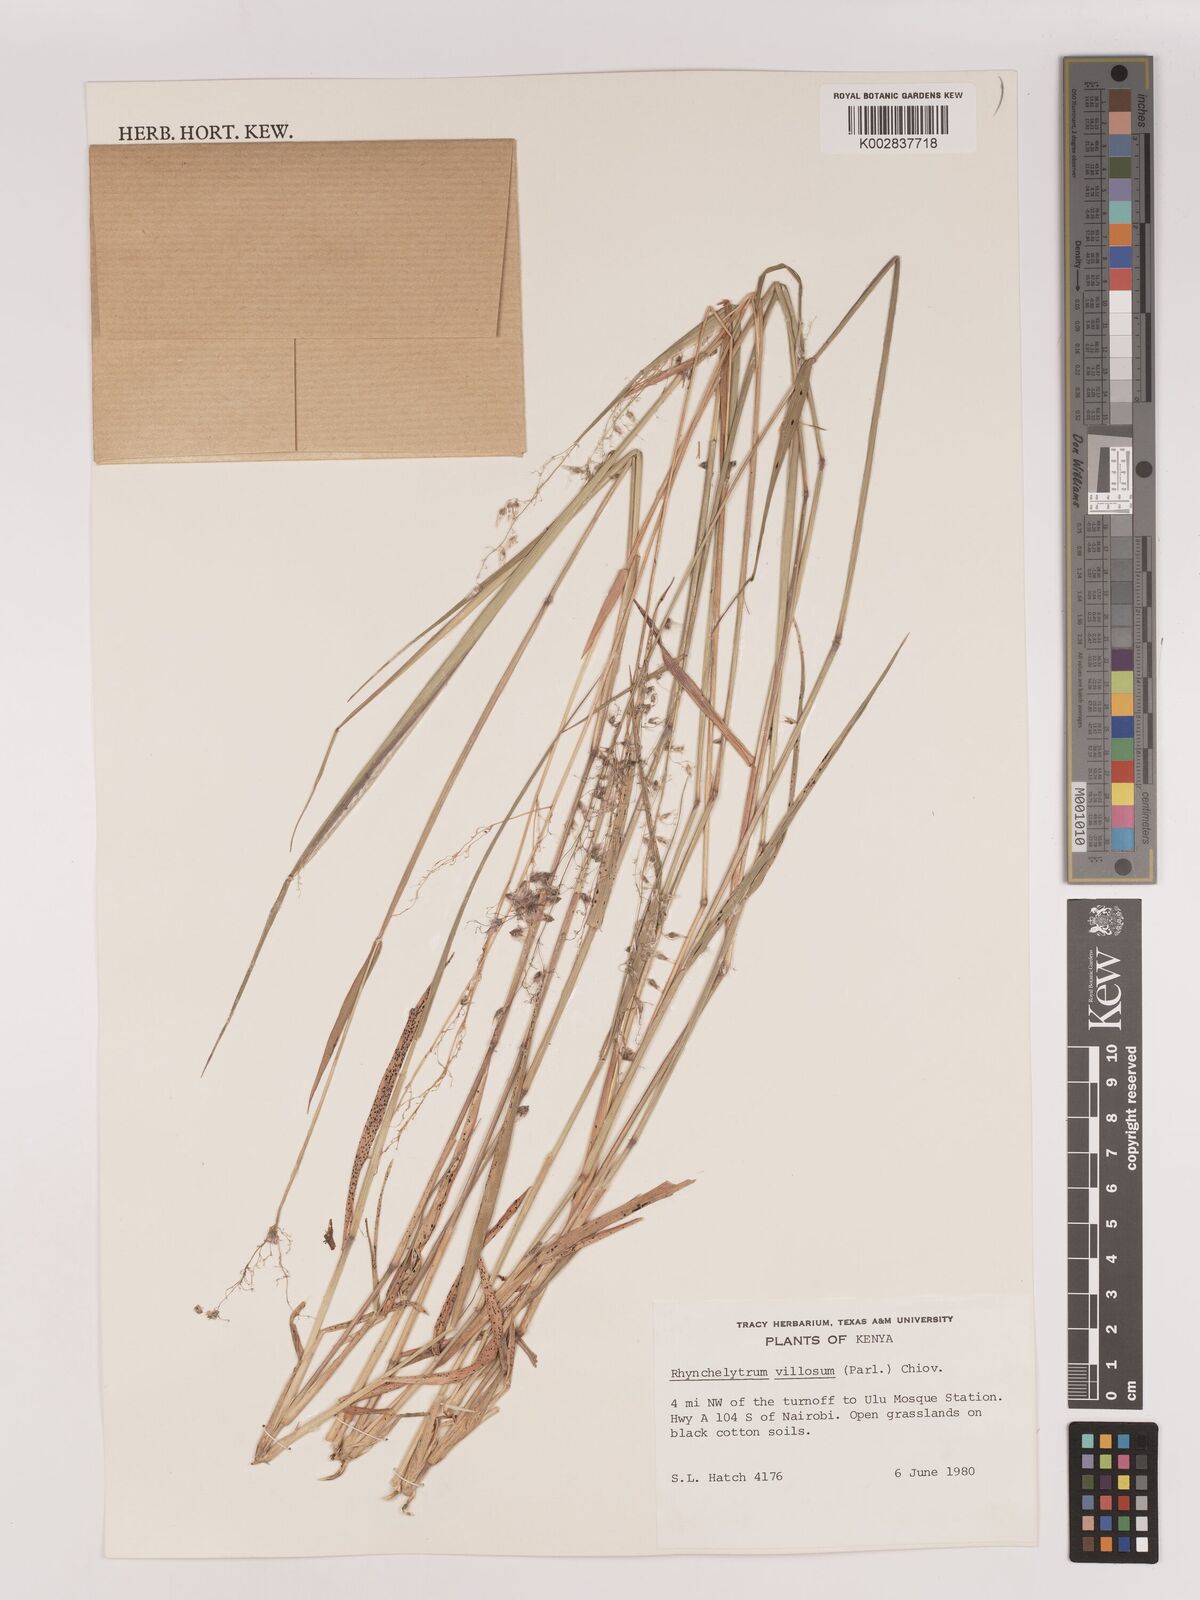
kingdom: Plantae
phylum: Tracheophyta
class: Liliopsida
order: Poales
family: Poaceae
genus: Melinis
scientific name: Melinis repens
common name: Rose natal grass
